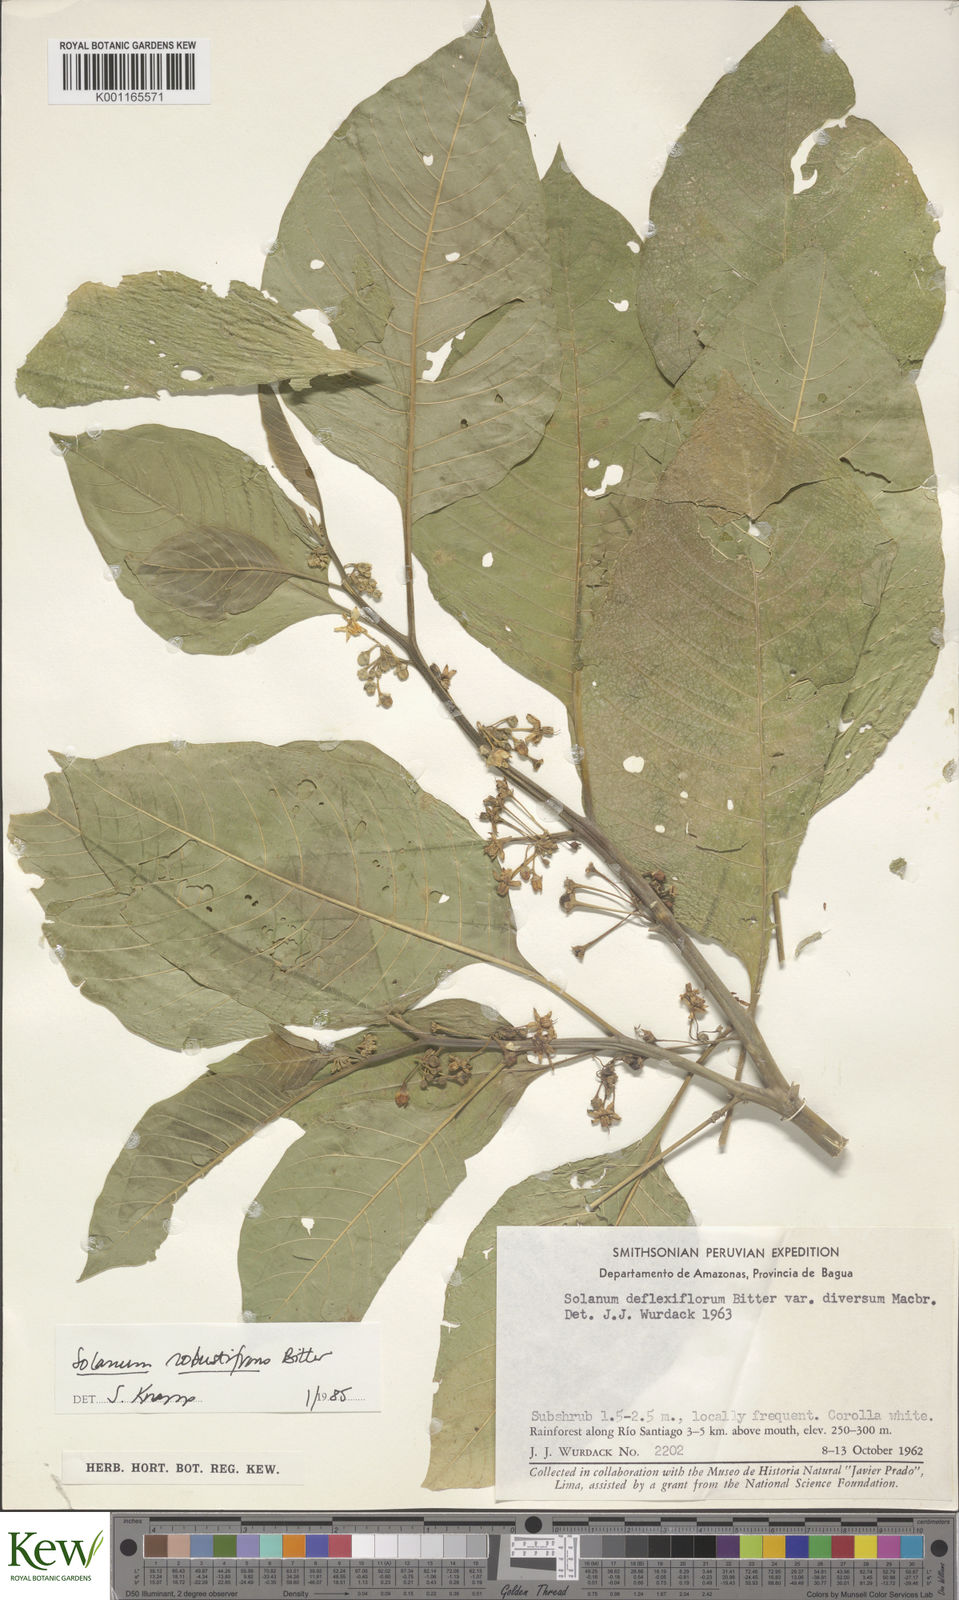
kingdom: Plantae
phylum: Tracheophyta
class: Magnoliopsida
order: Solanales
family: Solanaceae
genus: Solanum
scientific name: Solanum robustifrons
